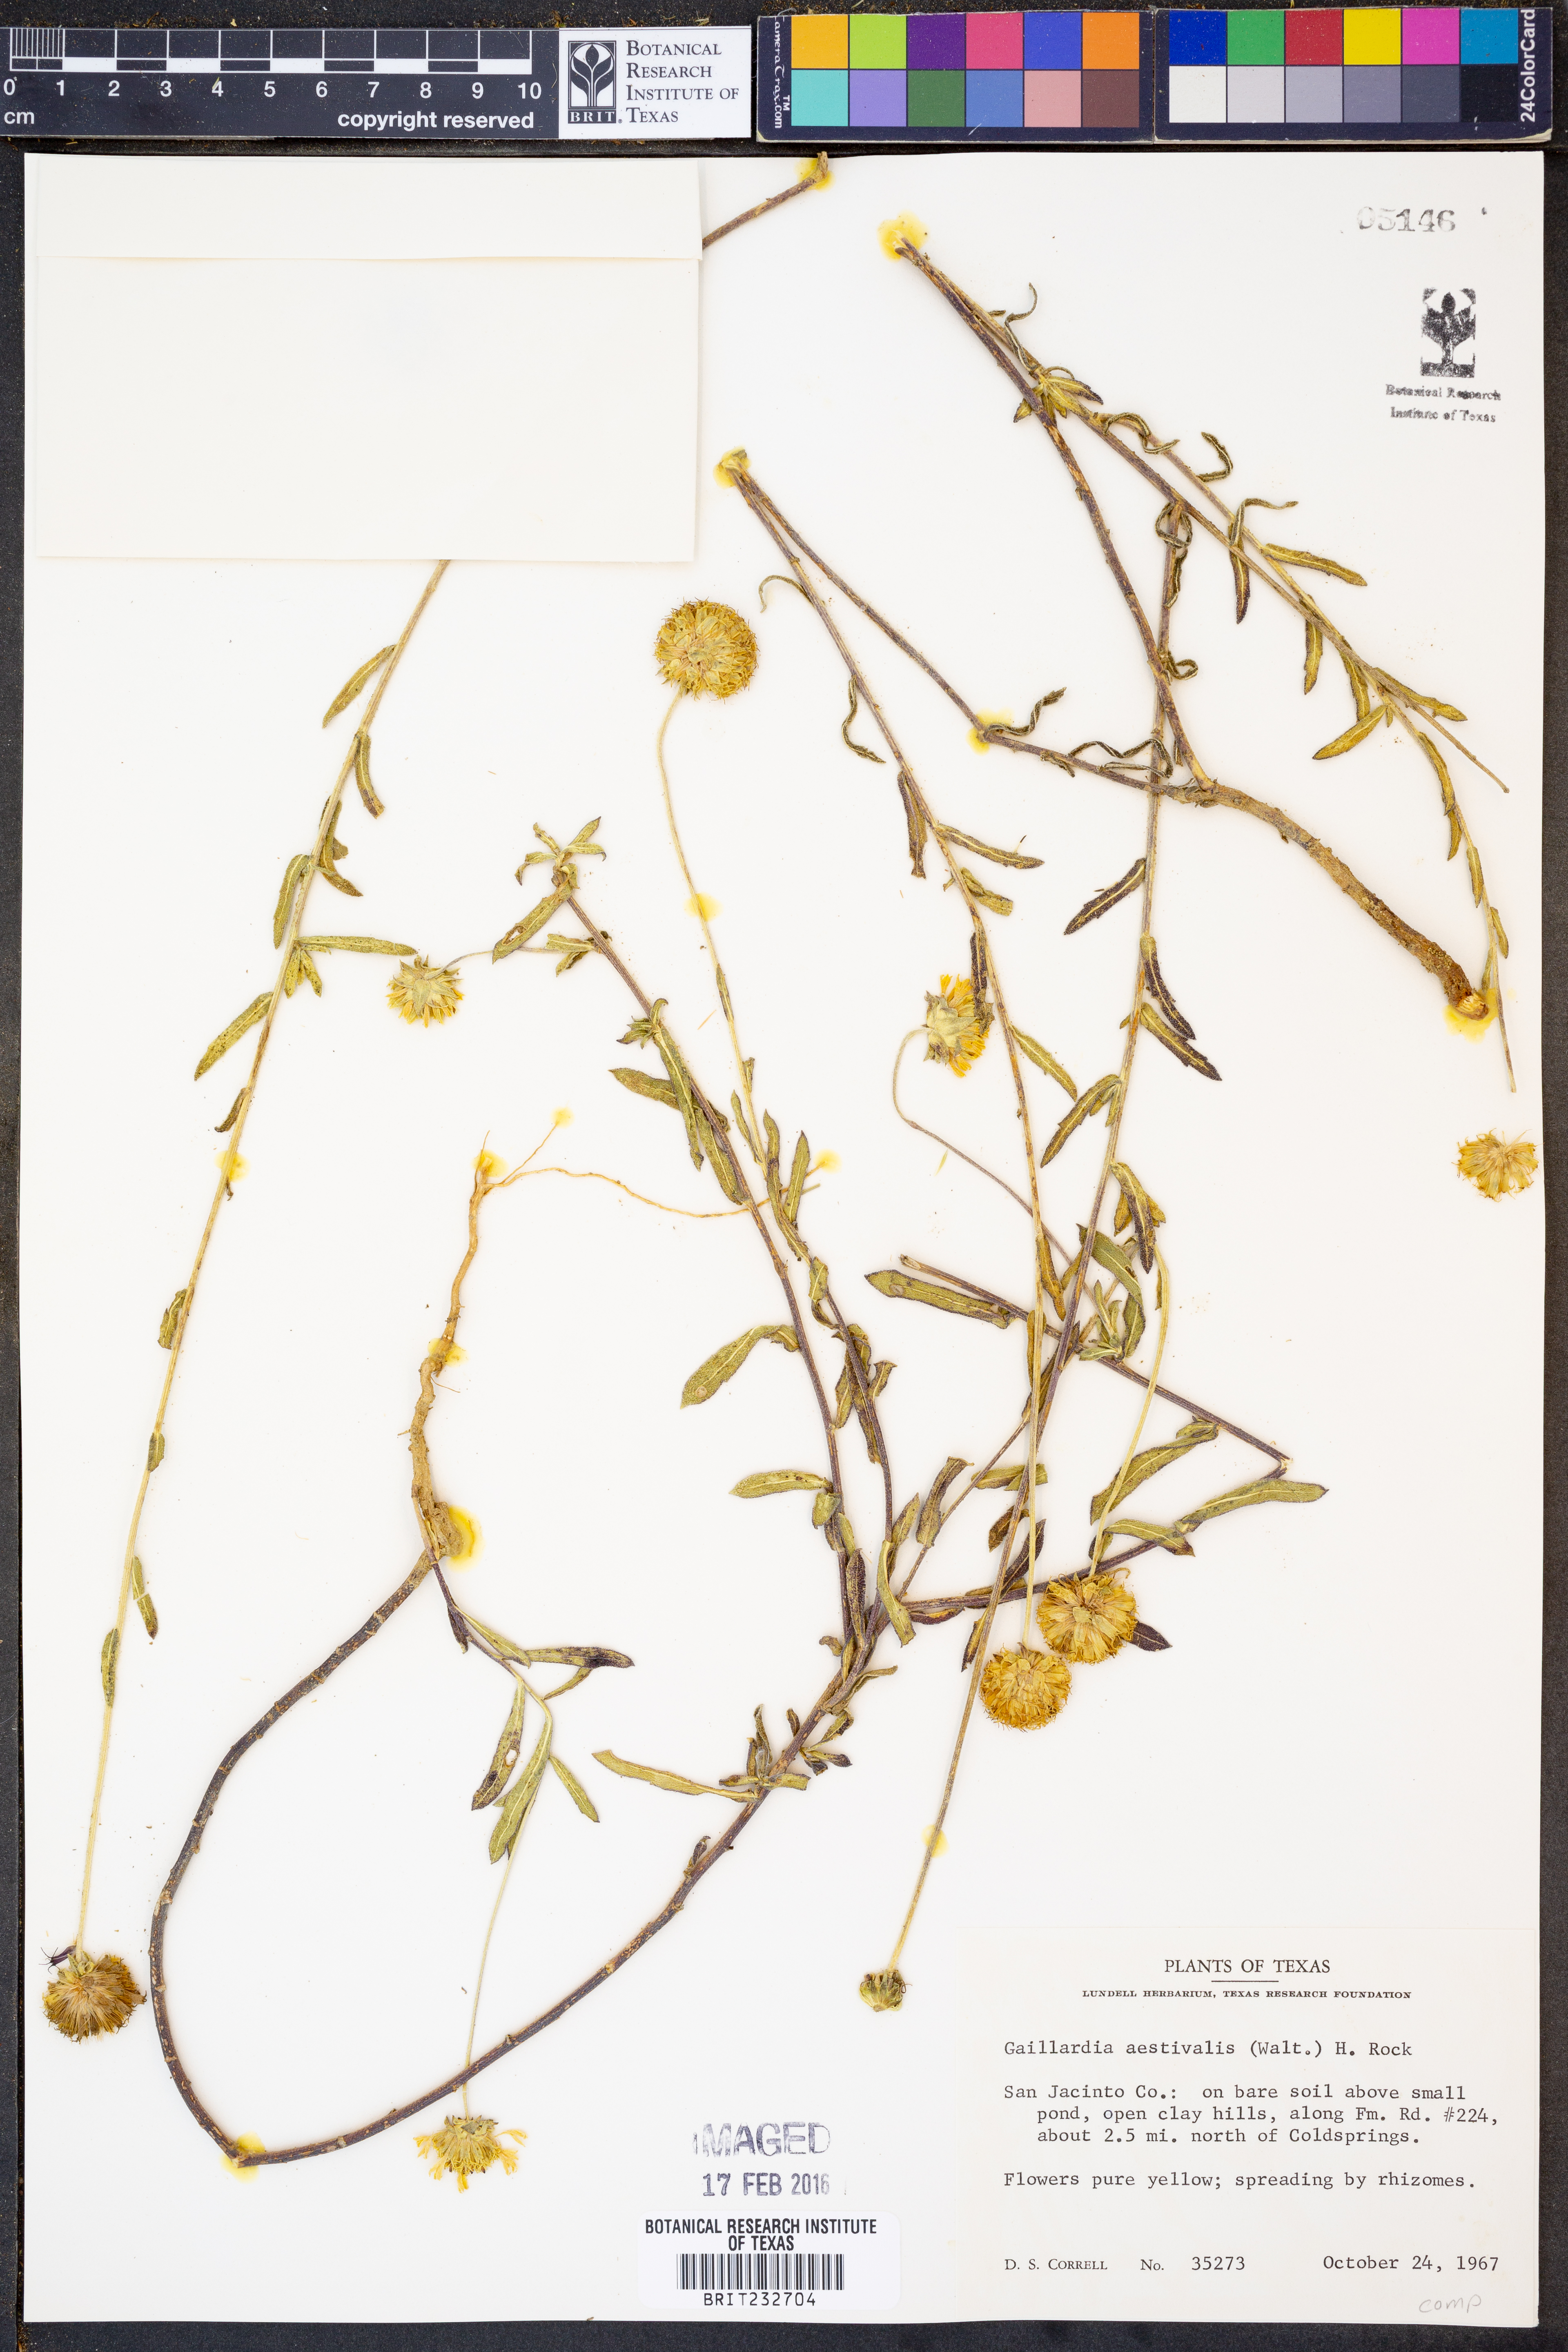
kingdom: Plantae
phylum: Tracheophyta
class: Magnoliopsida
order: Asterales
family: Asteraceae
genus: Gaillardia
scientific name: Gaillardia aestivalis
